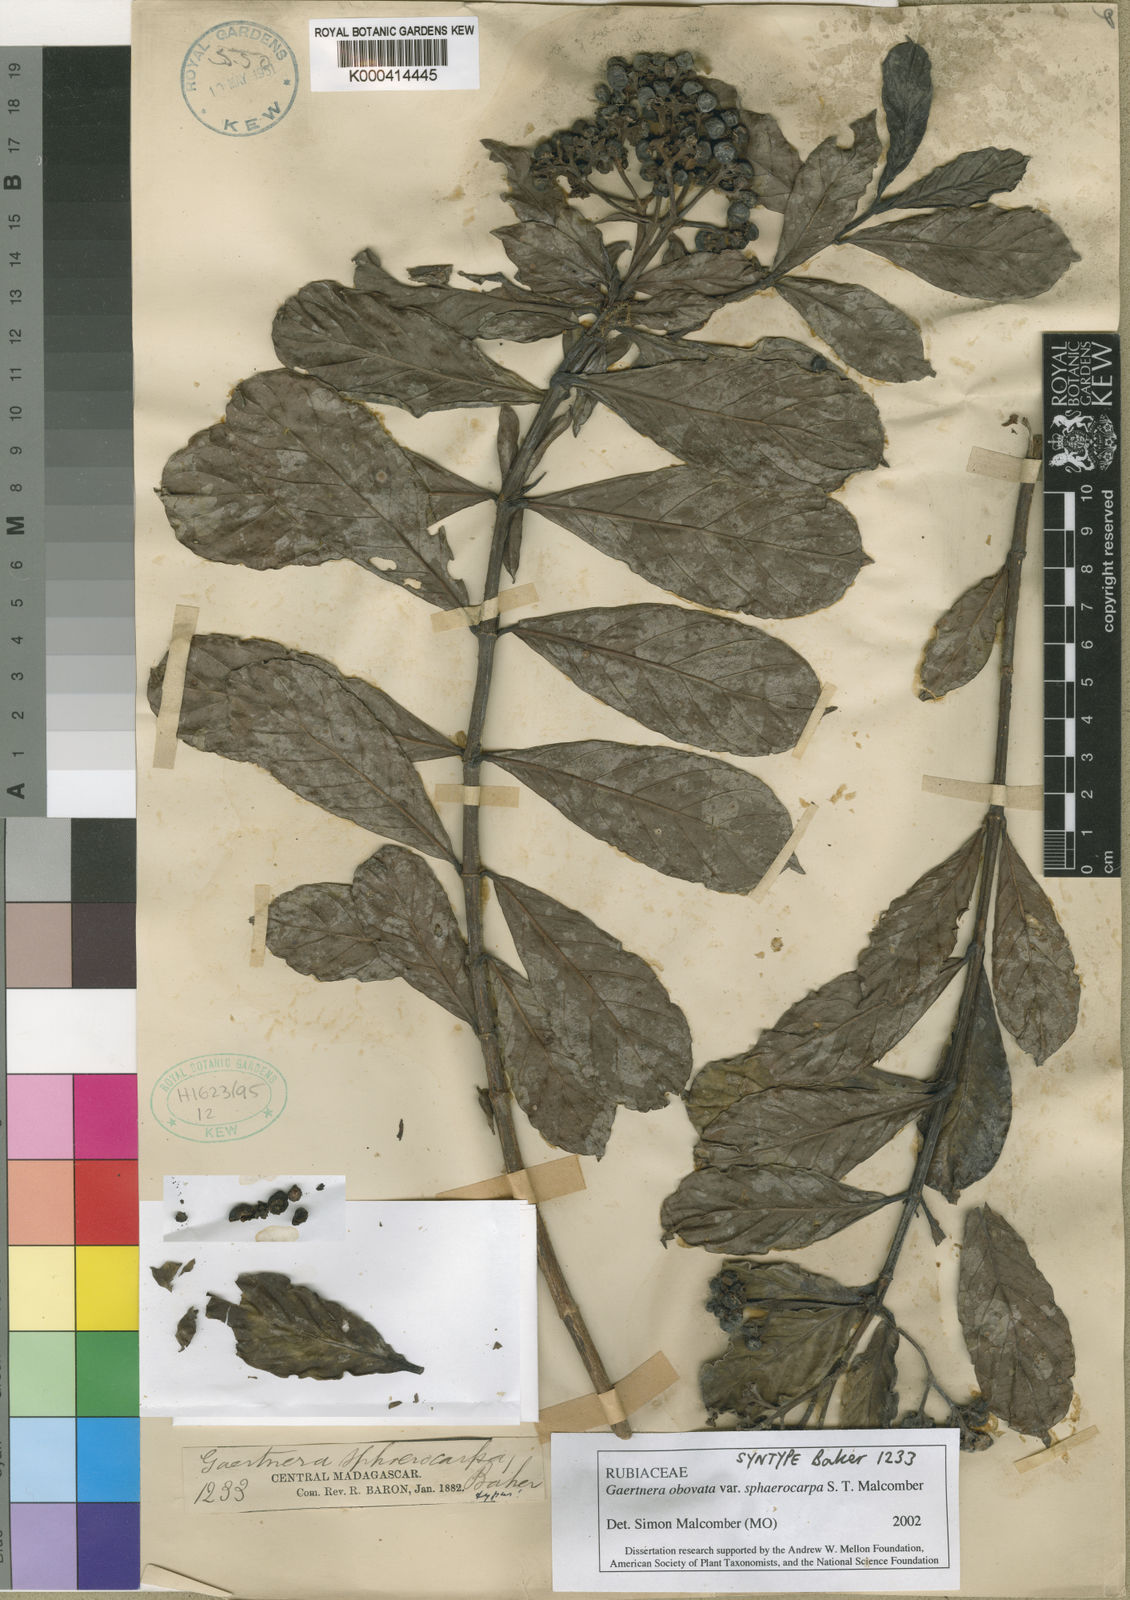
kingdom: Plantae
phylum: Tracheophyta
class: Magnoliopsida
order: Gentianales
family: Rubiaceae
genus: Gaertnera
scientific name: Gaertnera obovata
